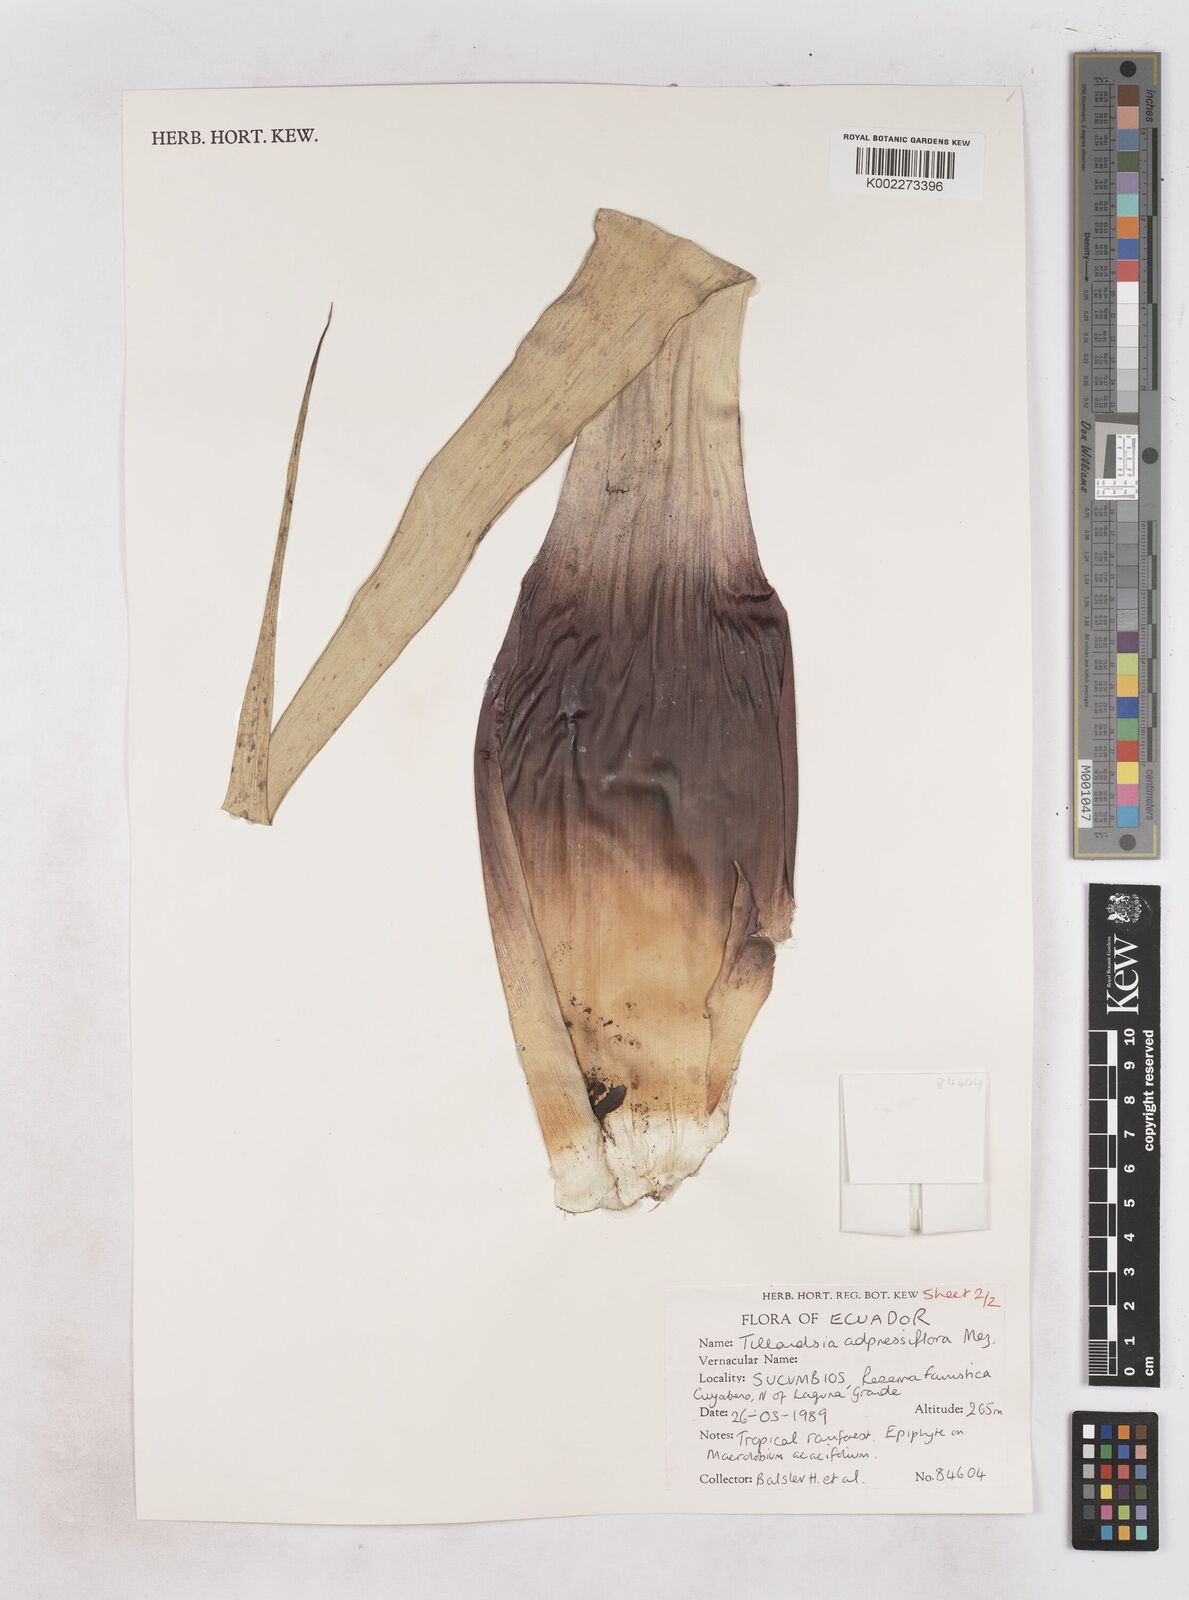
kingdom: Plantae
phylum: Tracheophyta
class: Liliopsida
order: Poales
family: Bromeliaceae
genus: Tillandsia
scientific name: Tillandsia adpressiflora
